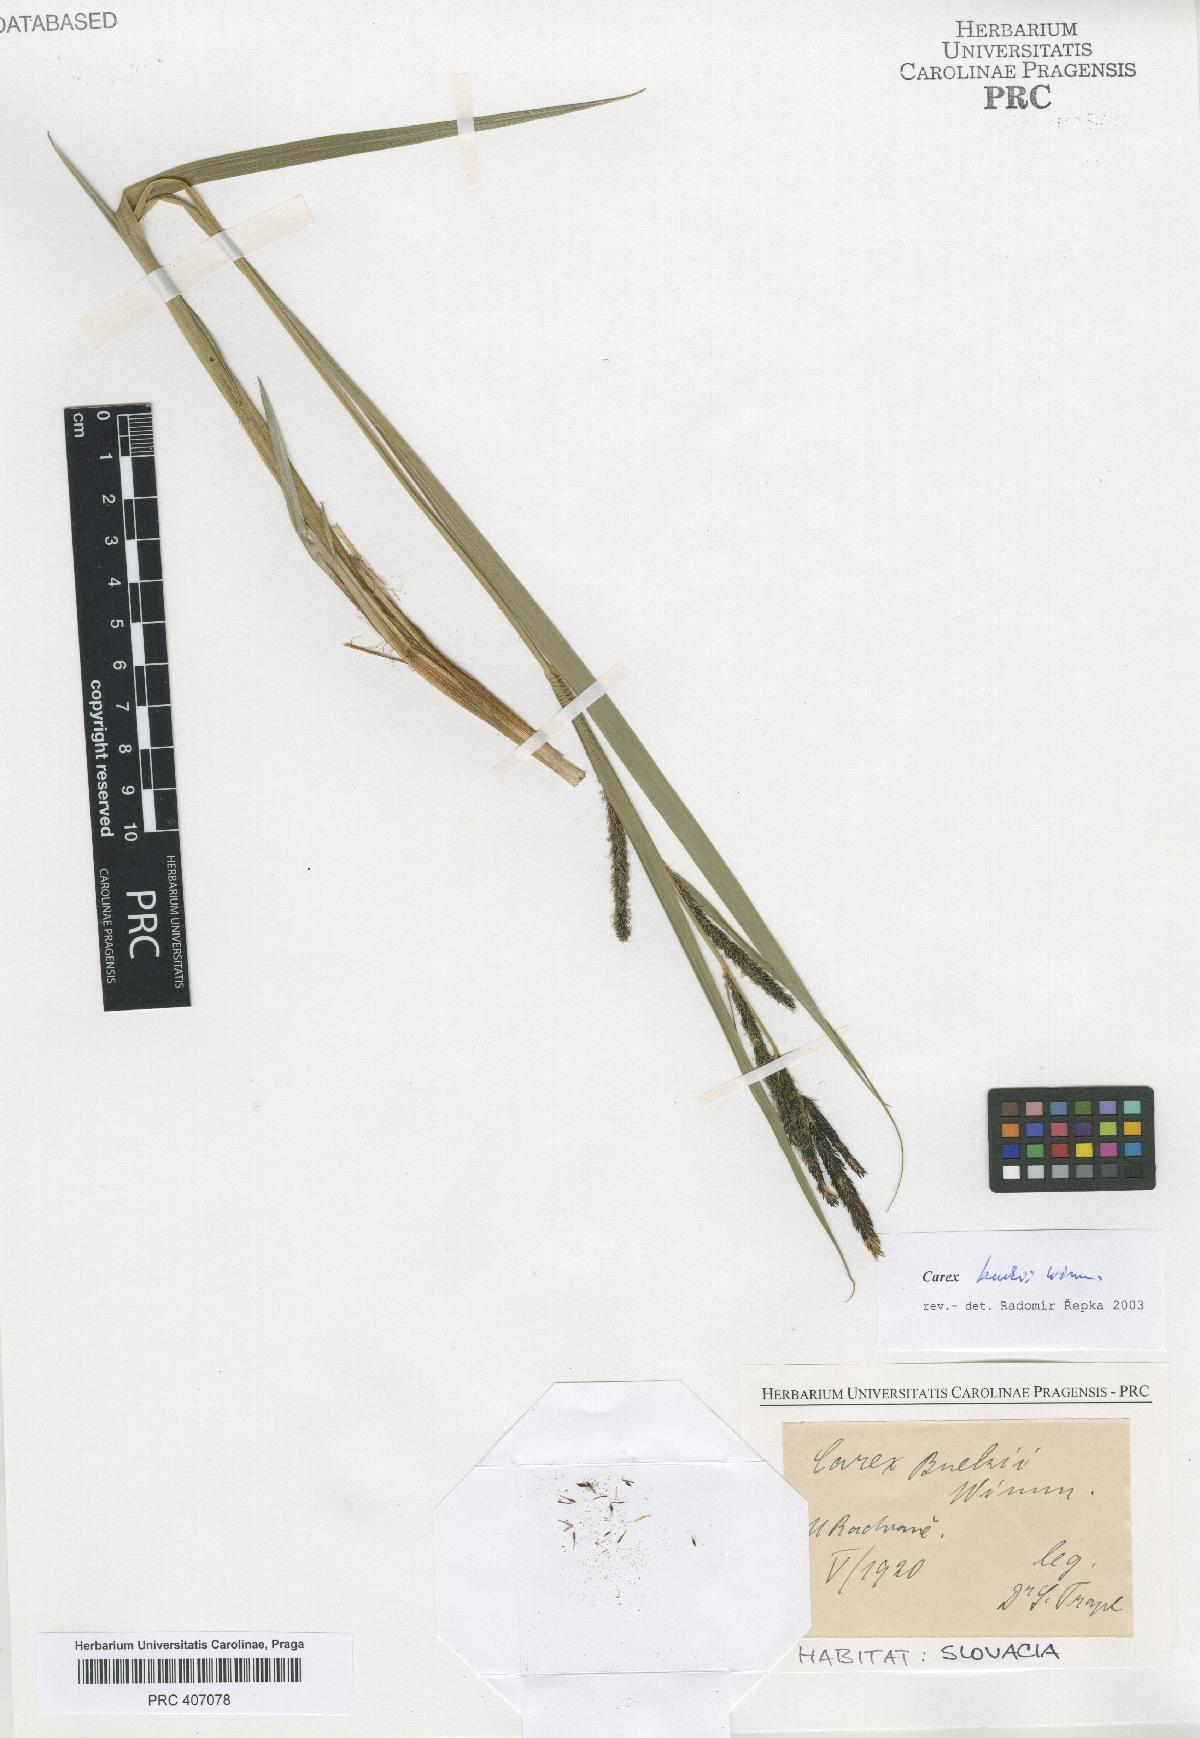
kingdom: Plantae
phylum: Tracheophyta
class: Liliopsida
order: Poales
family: Cyperaceae
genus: Carex
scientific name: Carex buekii
